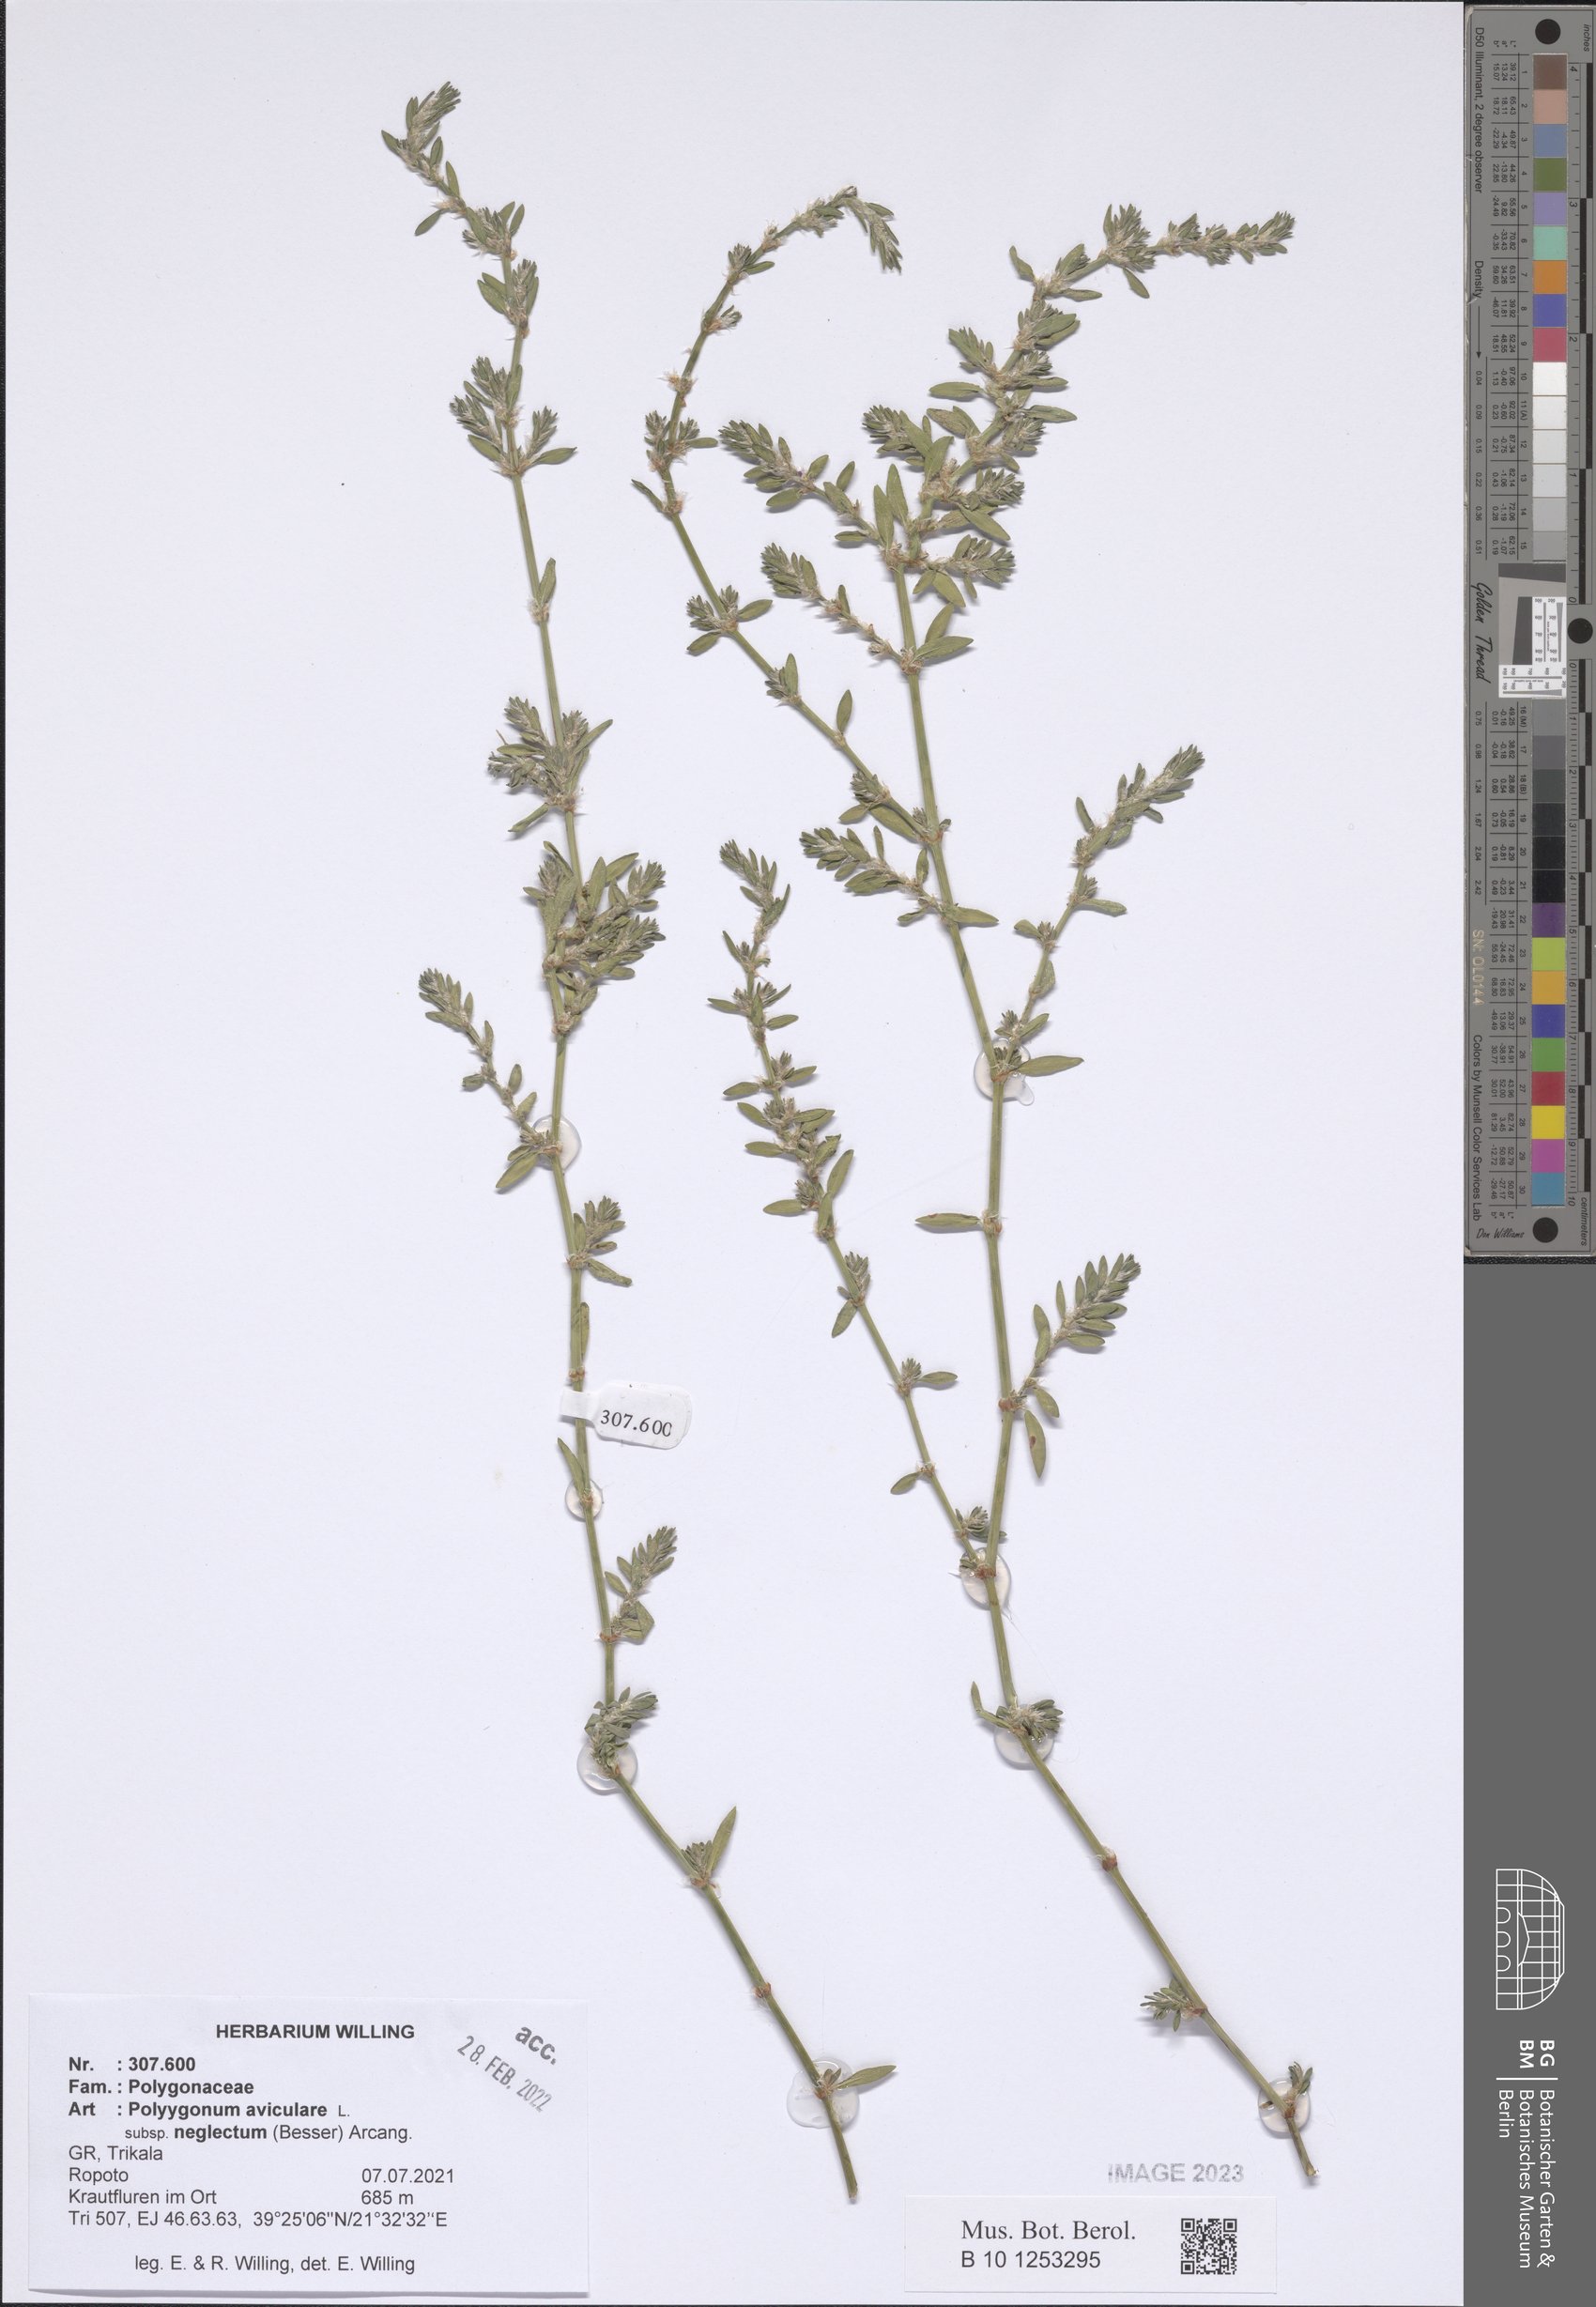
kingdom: Plantae
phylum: Tracheophyta
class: Magnoliopsida
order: Caryophyllales
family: Polygonaceae
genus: Polygonum
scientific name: Polygonum aviculare
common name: Prostrate knotweed
